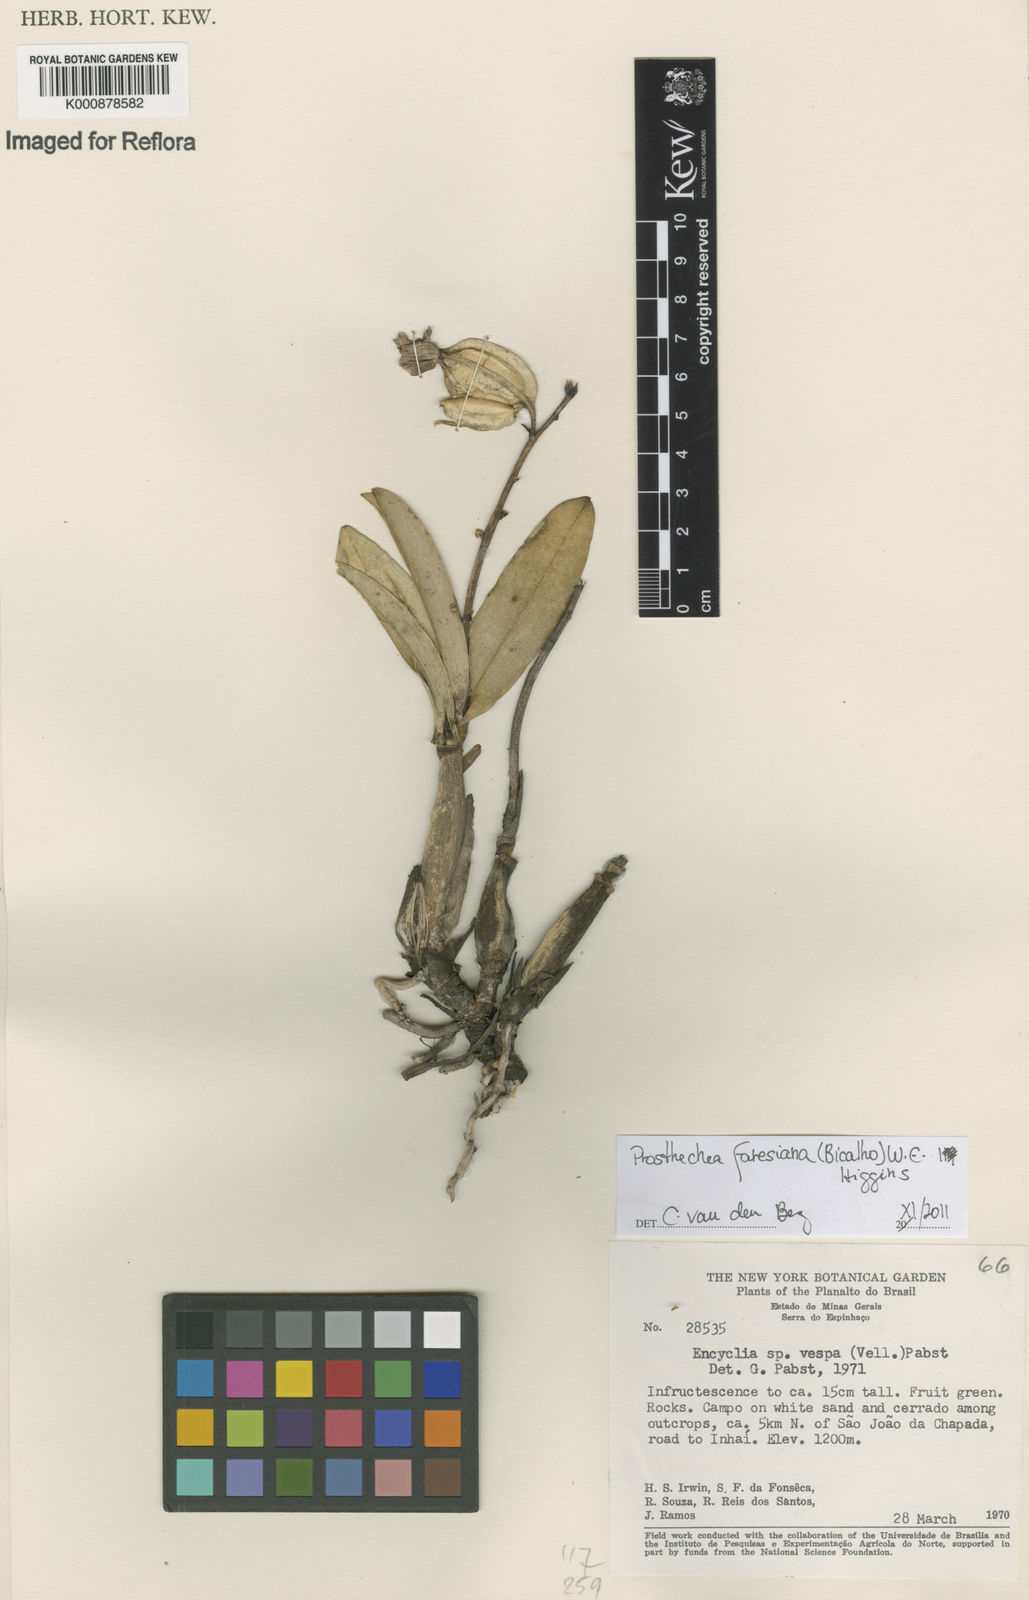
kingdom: Plantae
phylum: Tracheophyta
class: Liliopsida
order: Asparagales
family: Orchidaceae
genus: Prosthechea
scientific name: Prosthechea faresiana
